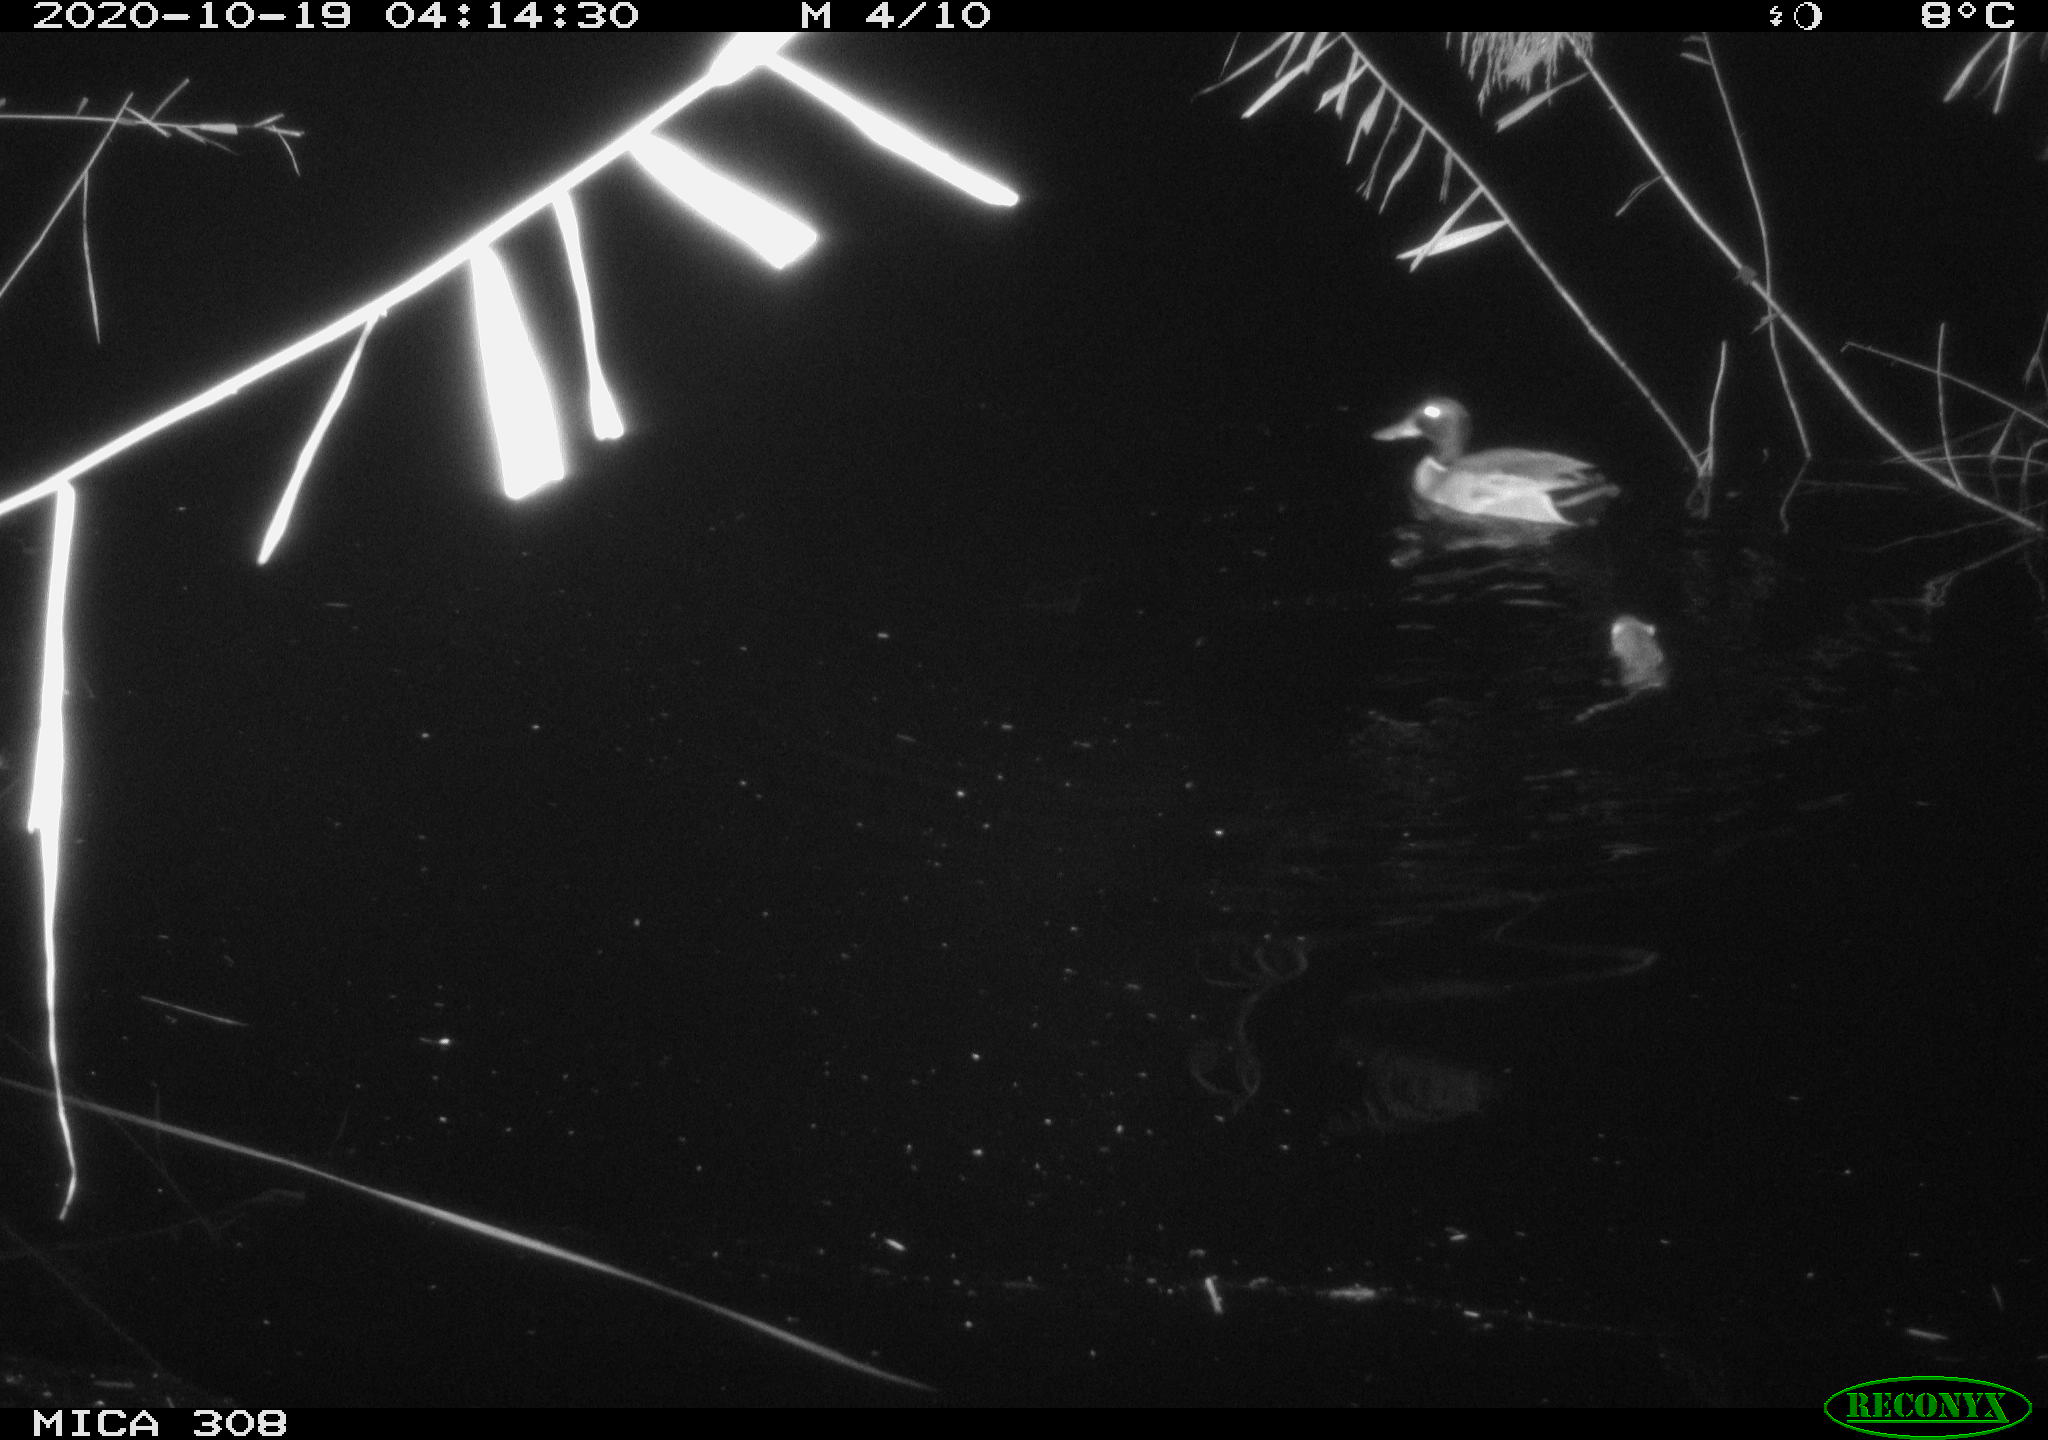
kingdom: Animalia
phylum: Chordata
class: Aves
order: Anseriformes
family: Anatidae
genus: Anas
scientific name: Anas platyrhynchos
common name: Mallard
